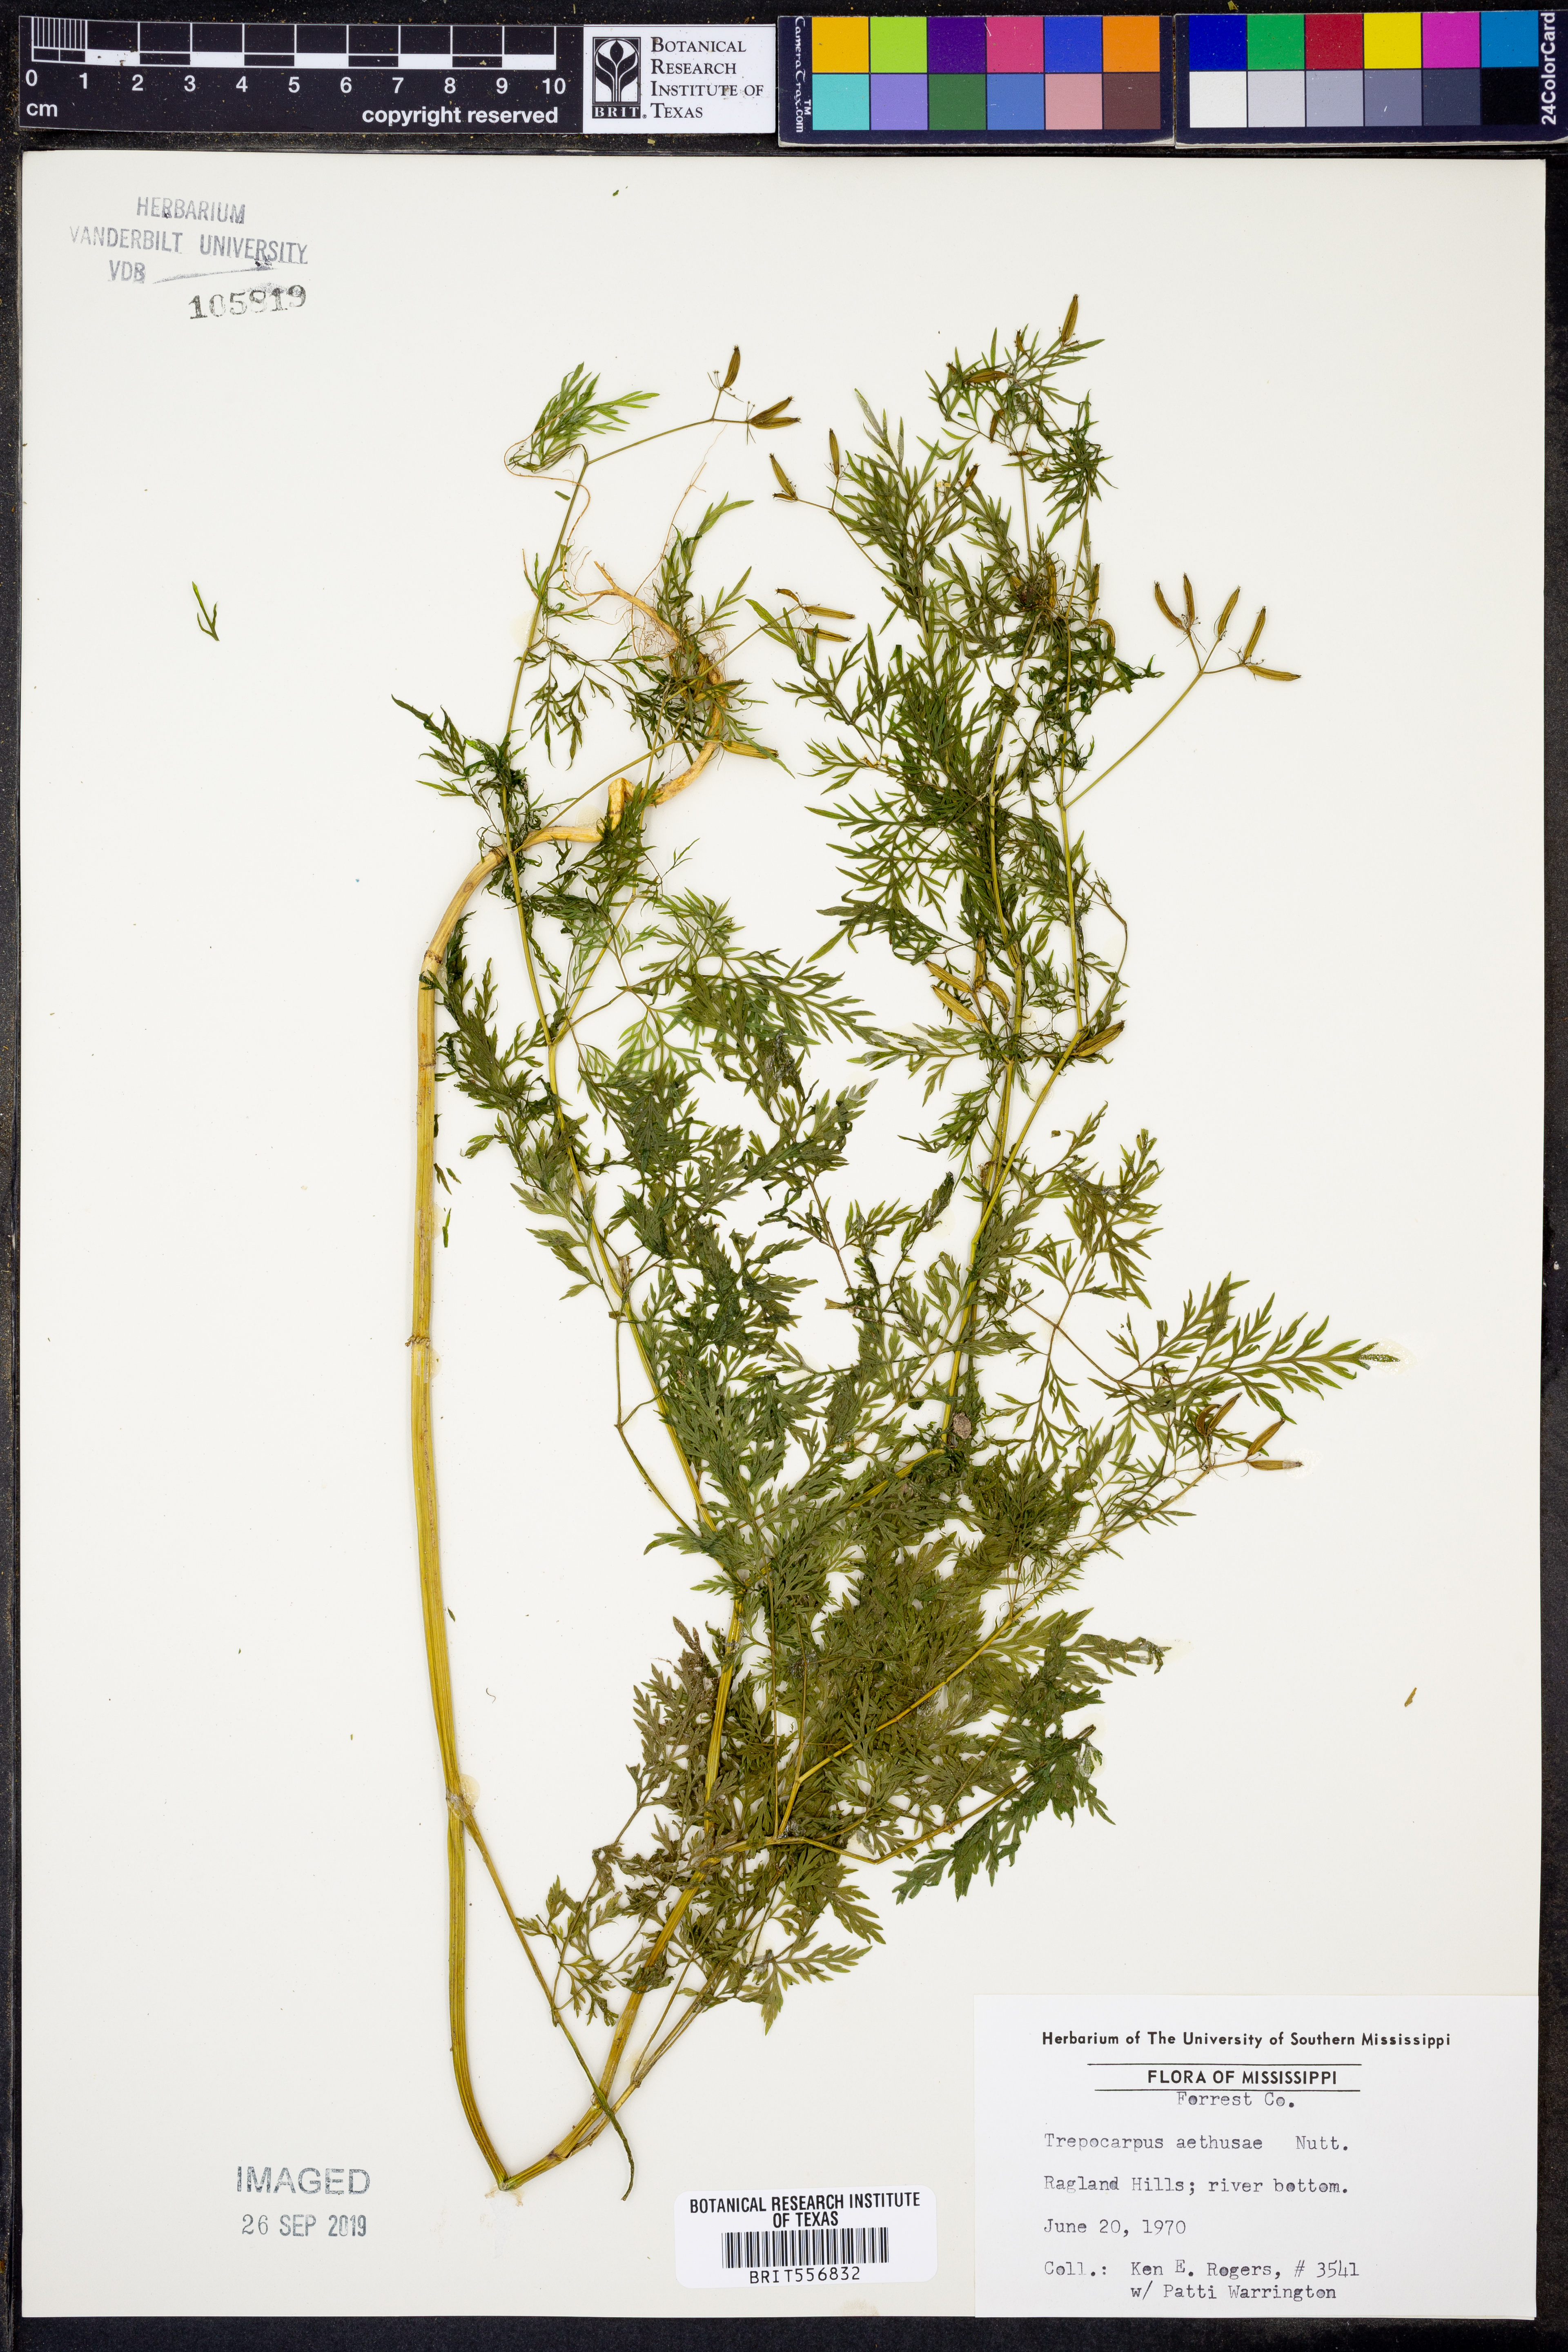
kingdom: Plantae
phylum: Tracheophyta
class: Magnoliopsida
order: Apiales
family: Apiaceae
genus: Trepocarpus
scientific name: Trepocarpus aethusae
